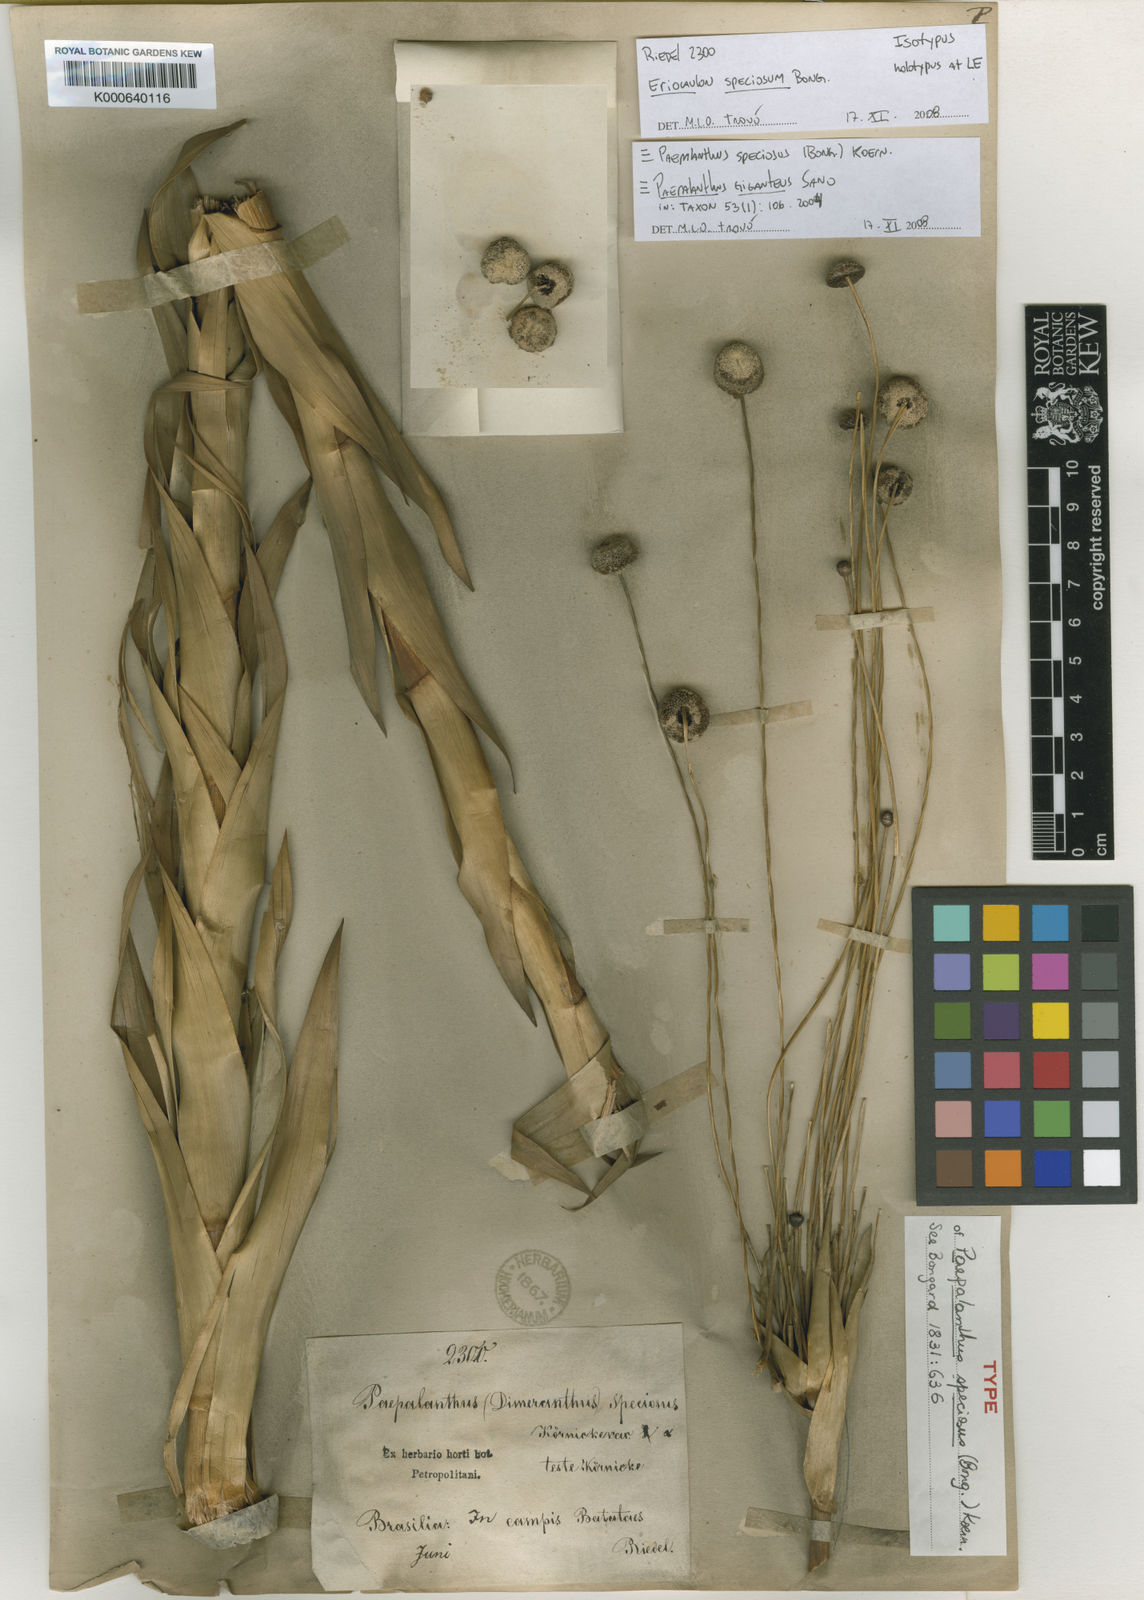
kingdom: Plantae
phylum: Tracheophyta
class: Liliopsida
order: Poales
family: Eriocaulaceae
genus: Paepalanthus
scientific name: Paepalanthus chiquitensis
